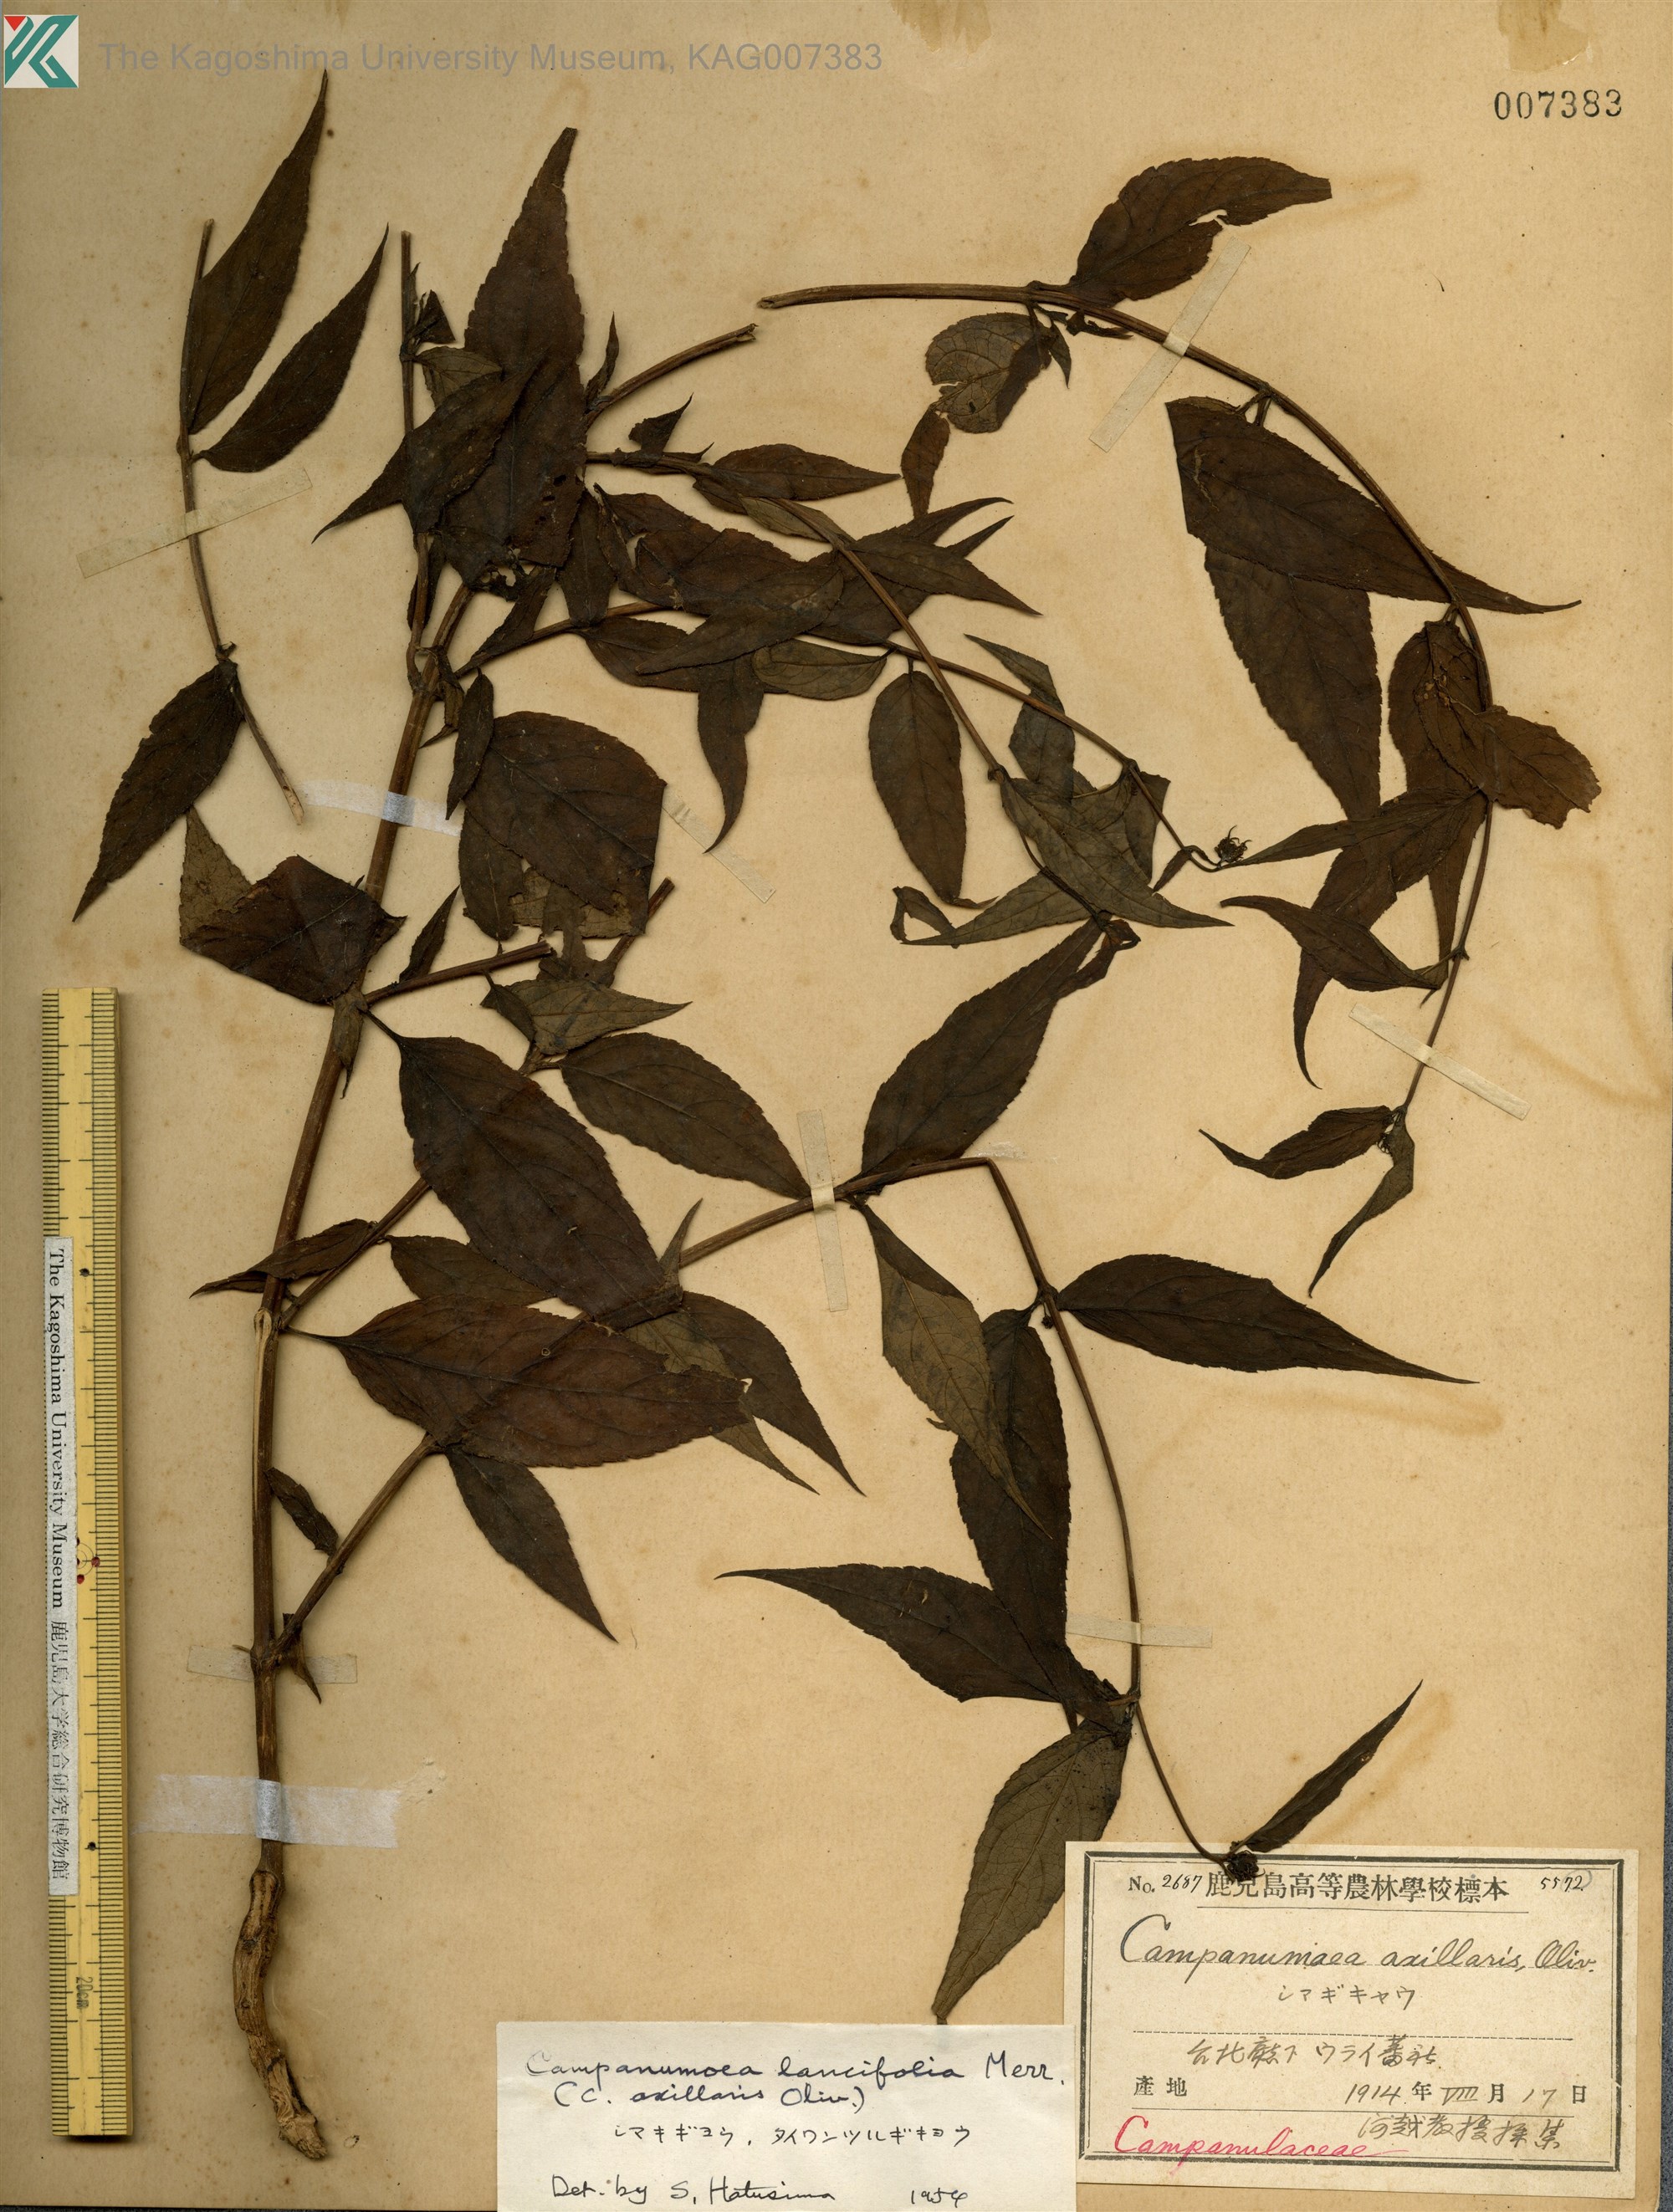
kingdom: Plantae
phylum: Tracheophyta
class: Magnoliopsida
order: Asterales
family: Campanulaceae
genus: Cyclocodon
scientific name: Cyclocodon lancifolius
